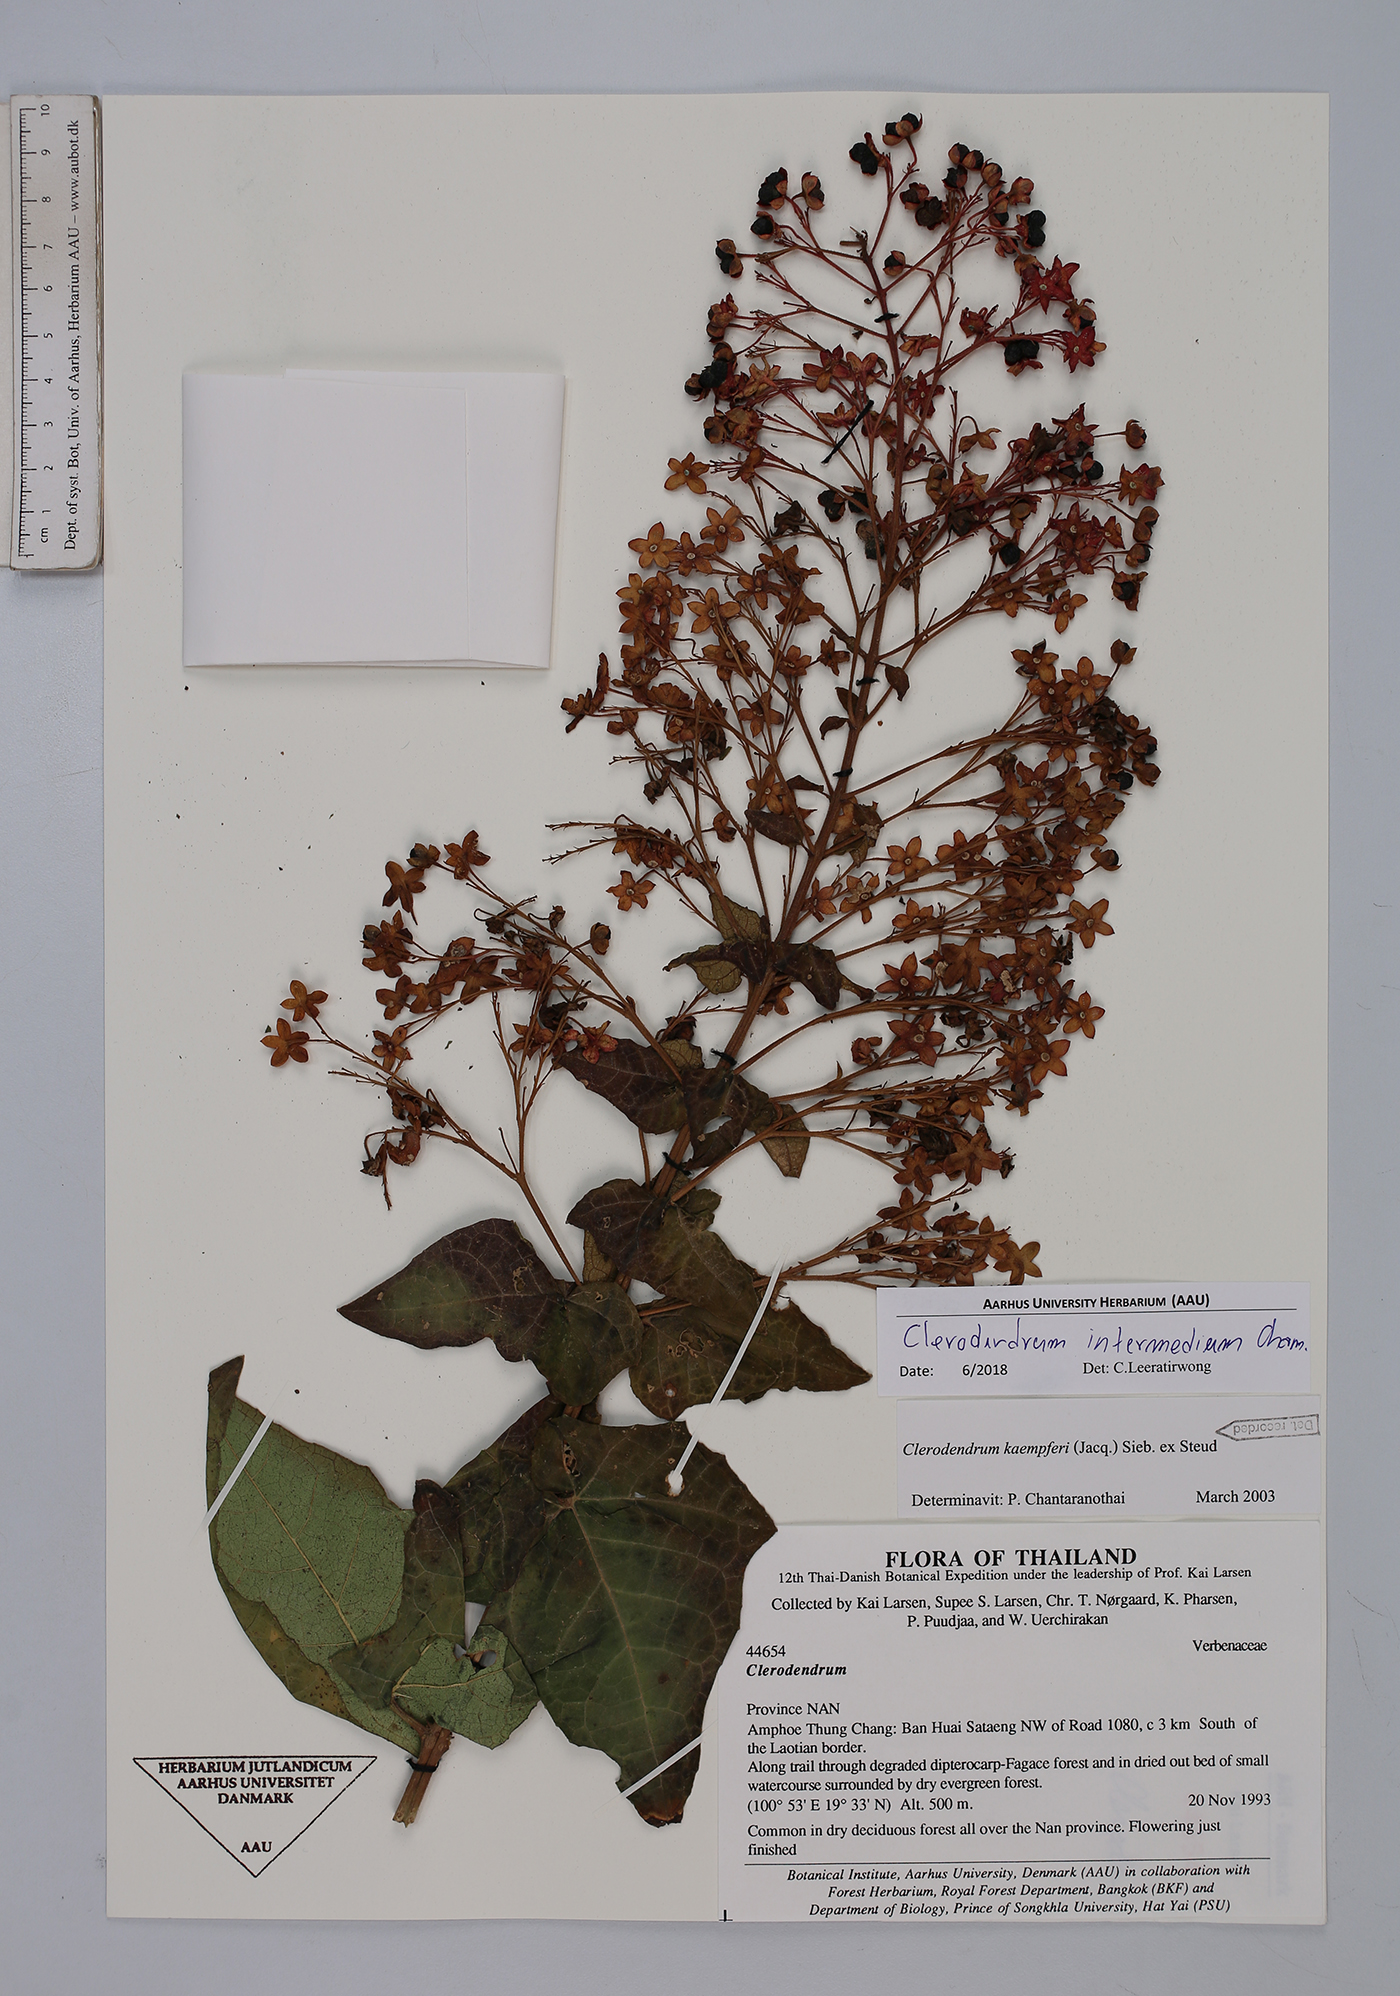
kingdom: Plantae
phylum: Tracheophyta
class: Magnoliopsida
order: Lamiales
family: Lamiaceae
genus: Clerodendrum
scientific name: Clerodendrum intermedium
